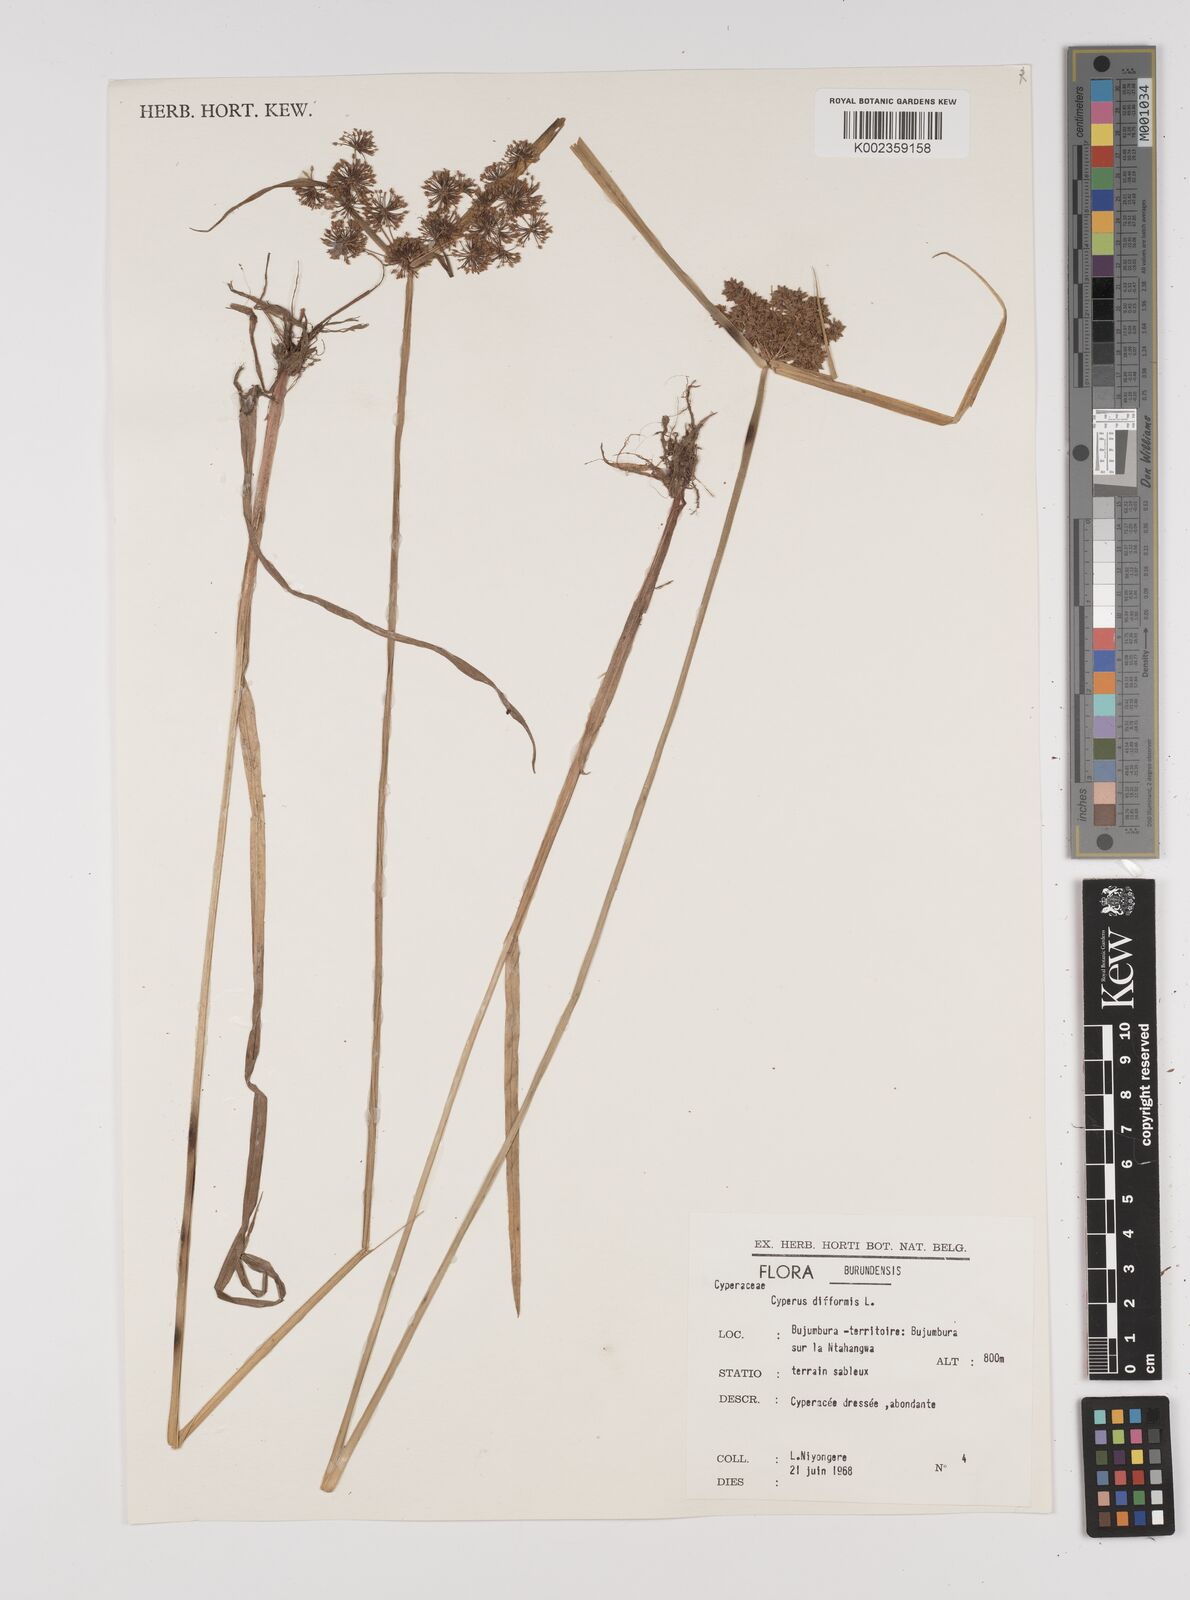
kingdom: Plantae
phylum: Tracheophyta
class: Liliopsida
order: Poales
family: Cyperaceae
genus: Cyperus
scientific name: Cyperus difformis
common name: Variable flatsedge
